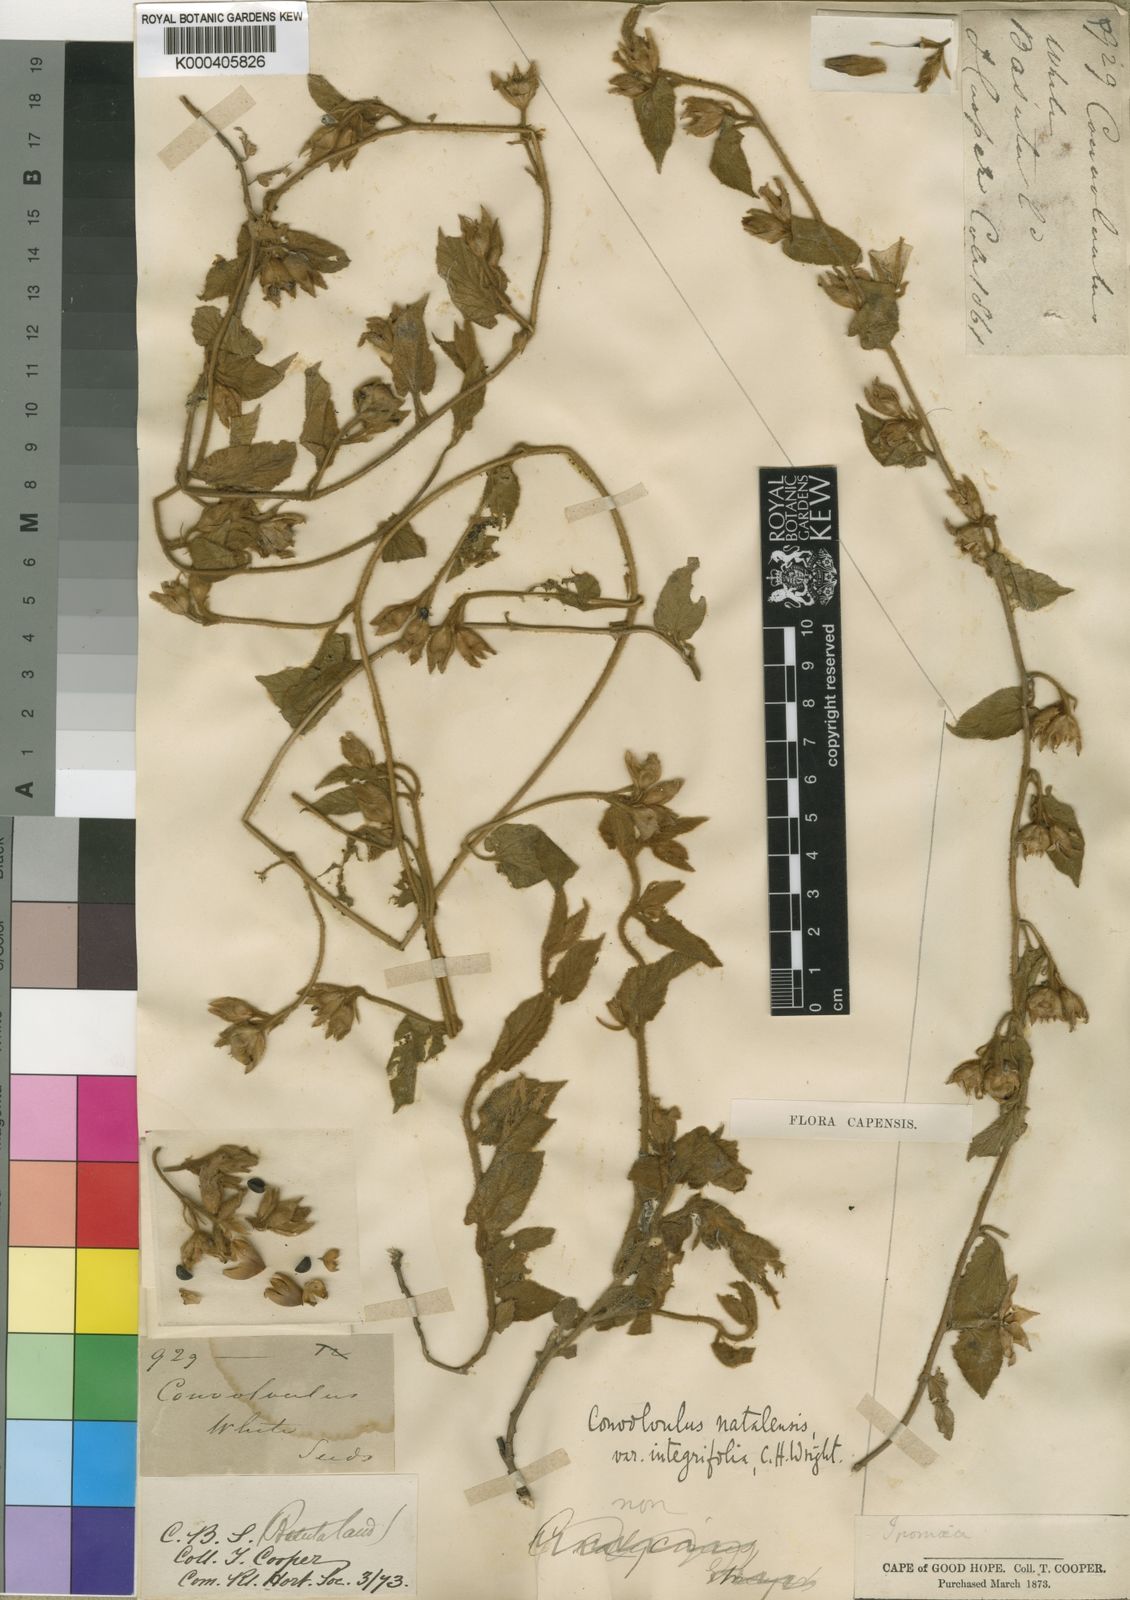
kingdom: Plantae
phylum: Tracheophyta
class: Magnoliopsida
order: Solanales
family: Convolvulaceae
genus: Convolvulus
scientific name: Convolvulus natalensis
